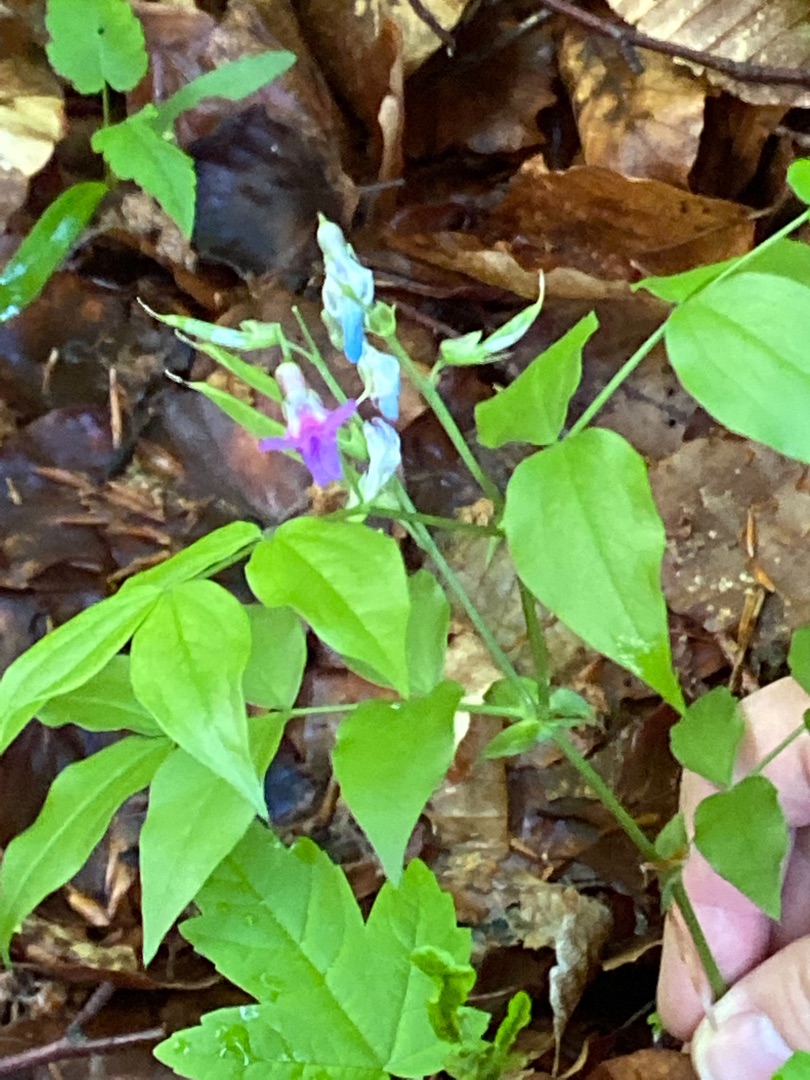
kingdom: Plantae
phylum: Tracheophyta
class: Magnoliopsida
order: Fabales
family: Fabaceae
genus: Lathyrus
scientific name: Lathyrus vernus
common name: Vår-fladbælg
